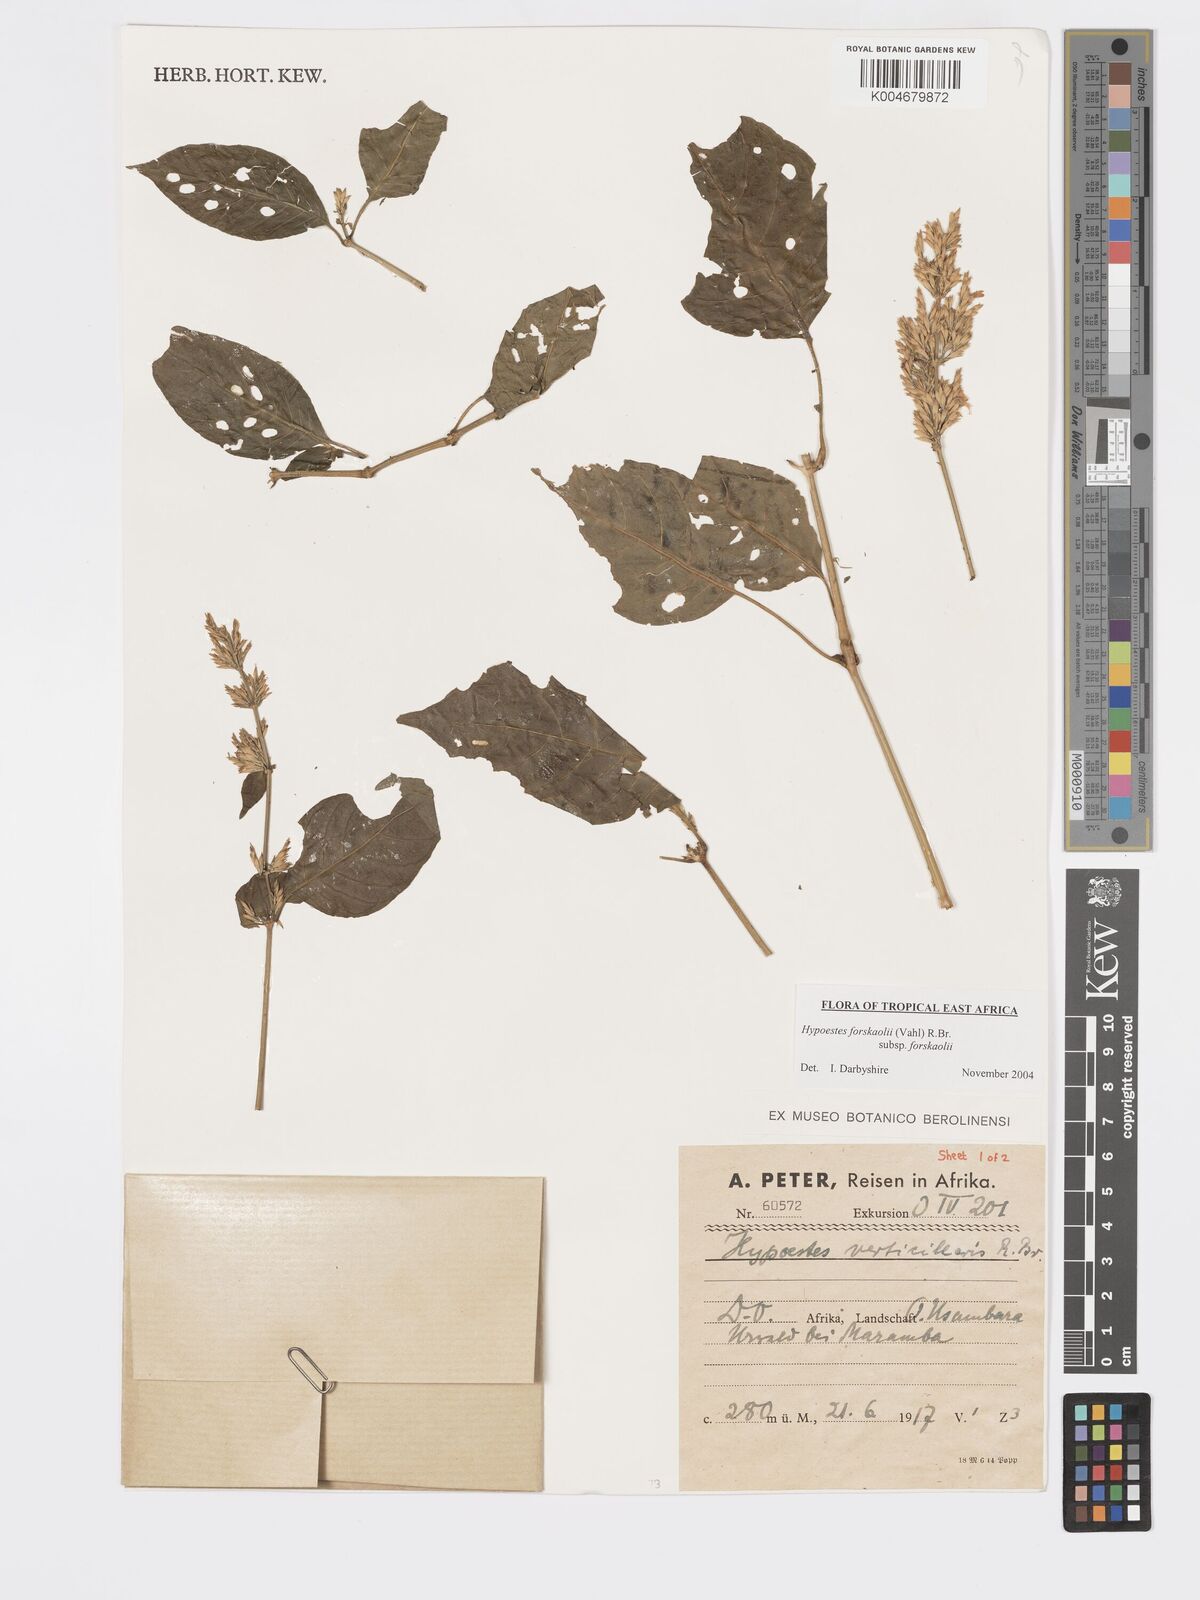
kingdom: Plantae
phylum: Tracheophyta
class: Magnoliopsida
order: Lamiales
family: Acanthaceae
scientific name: Acanthaceae
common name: Acanthaceae
